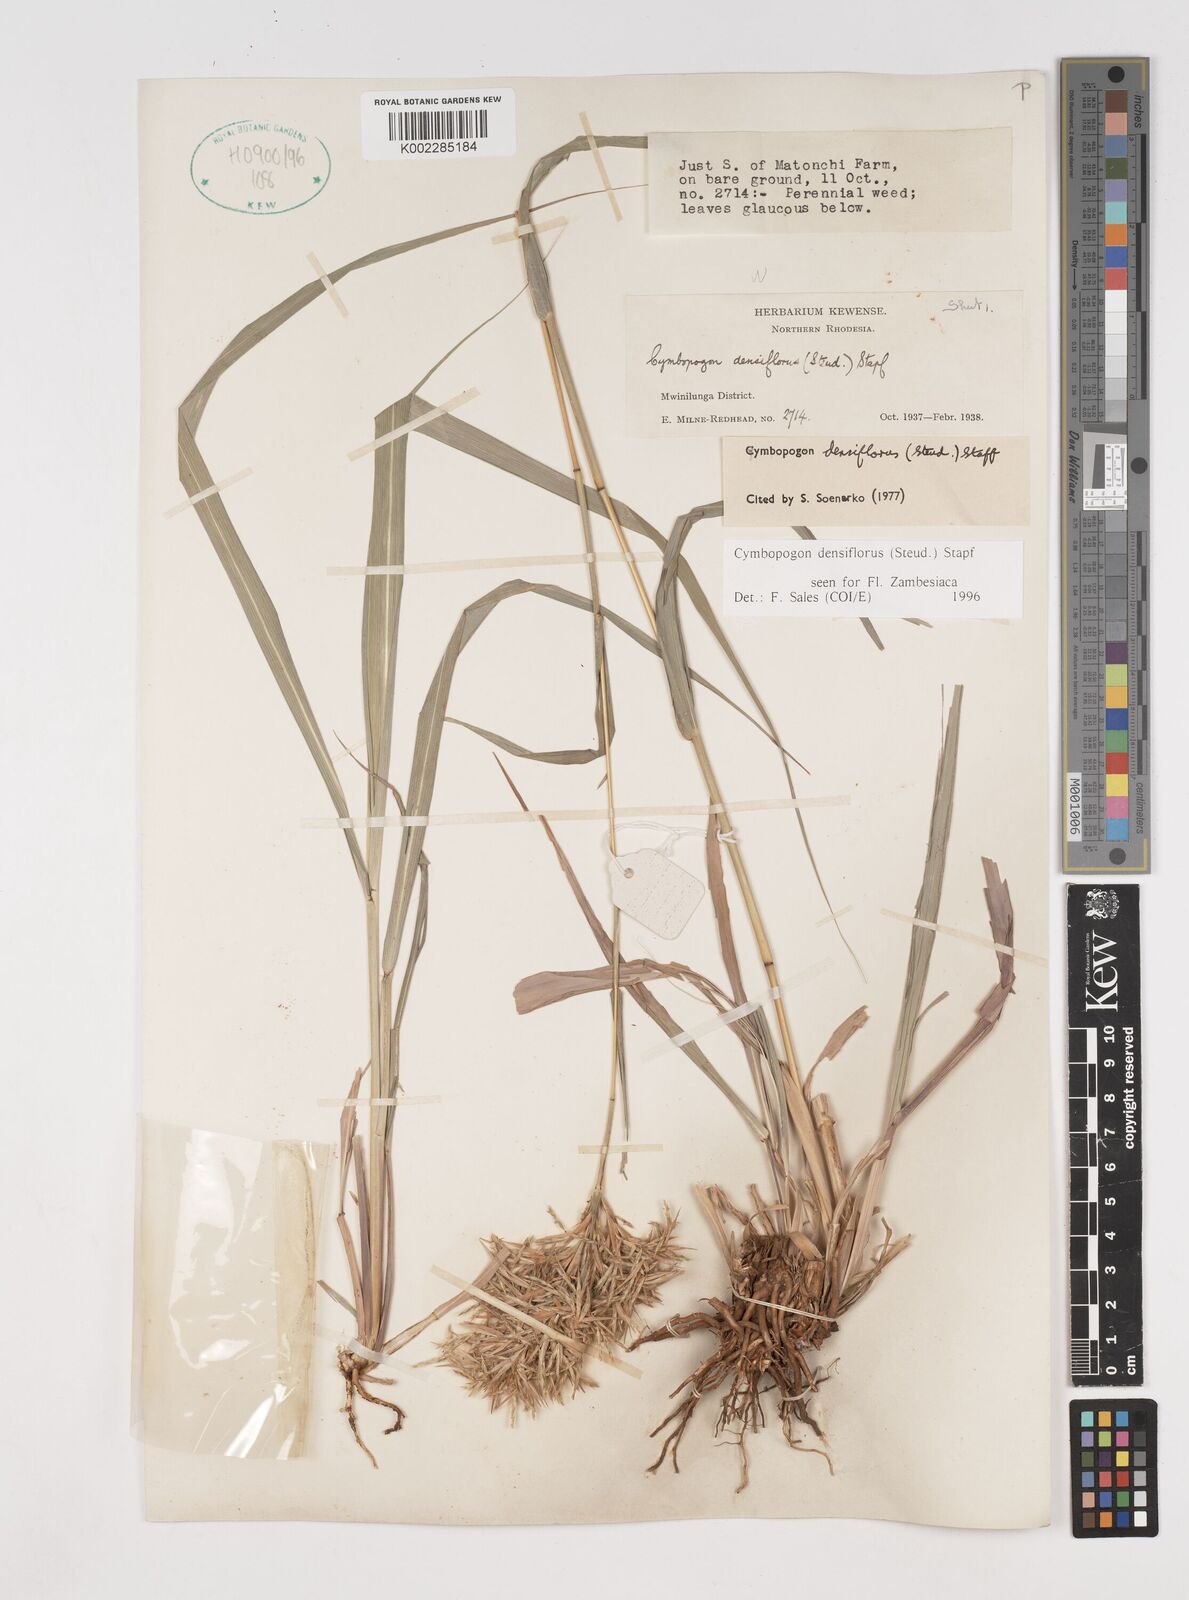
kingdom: Plantae
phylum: Tracheophyta
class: Liliopsida
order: Poales
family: Poaceae
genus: Cymbopogon
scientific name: Cymbopogon densiflorus
